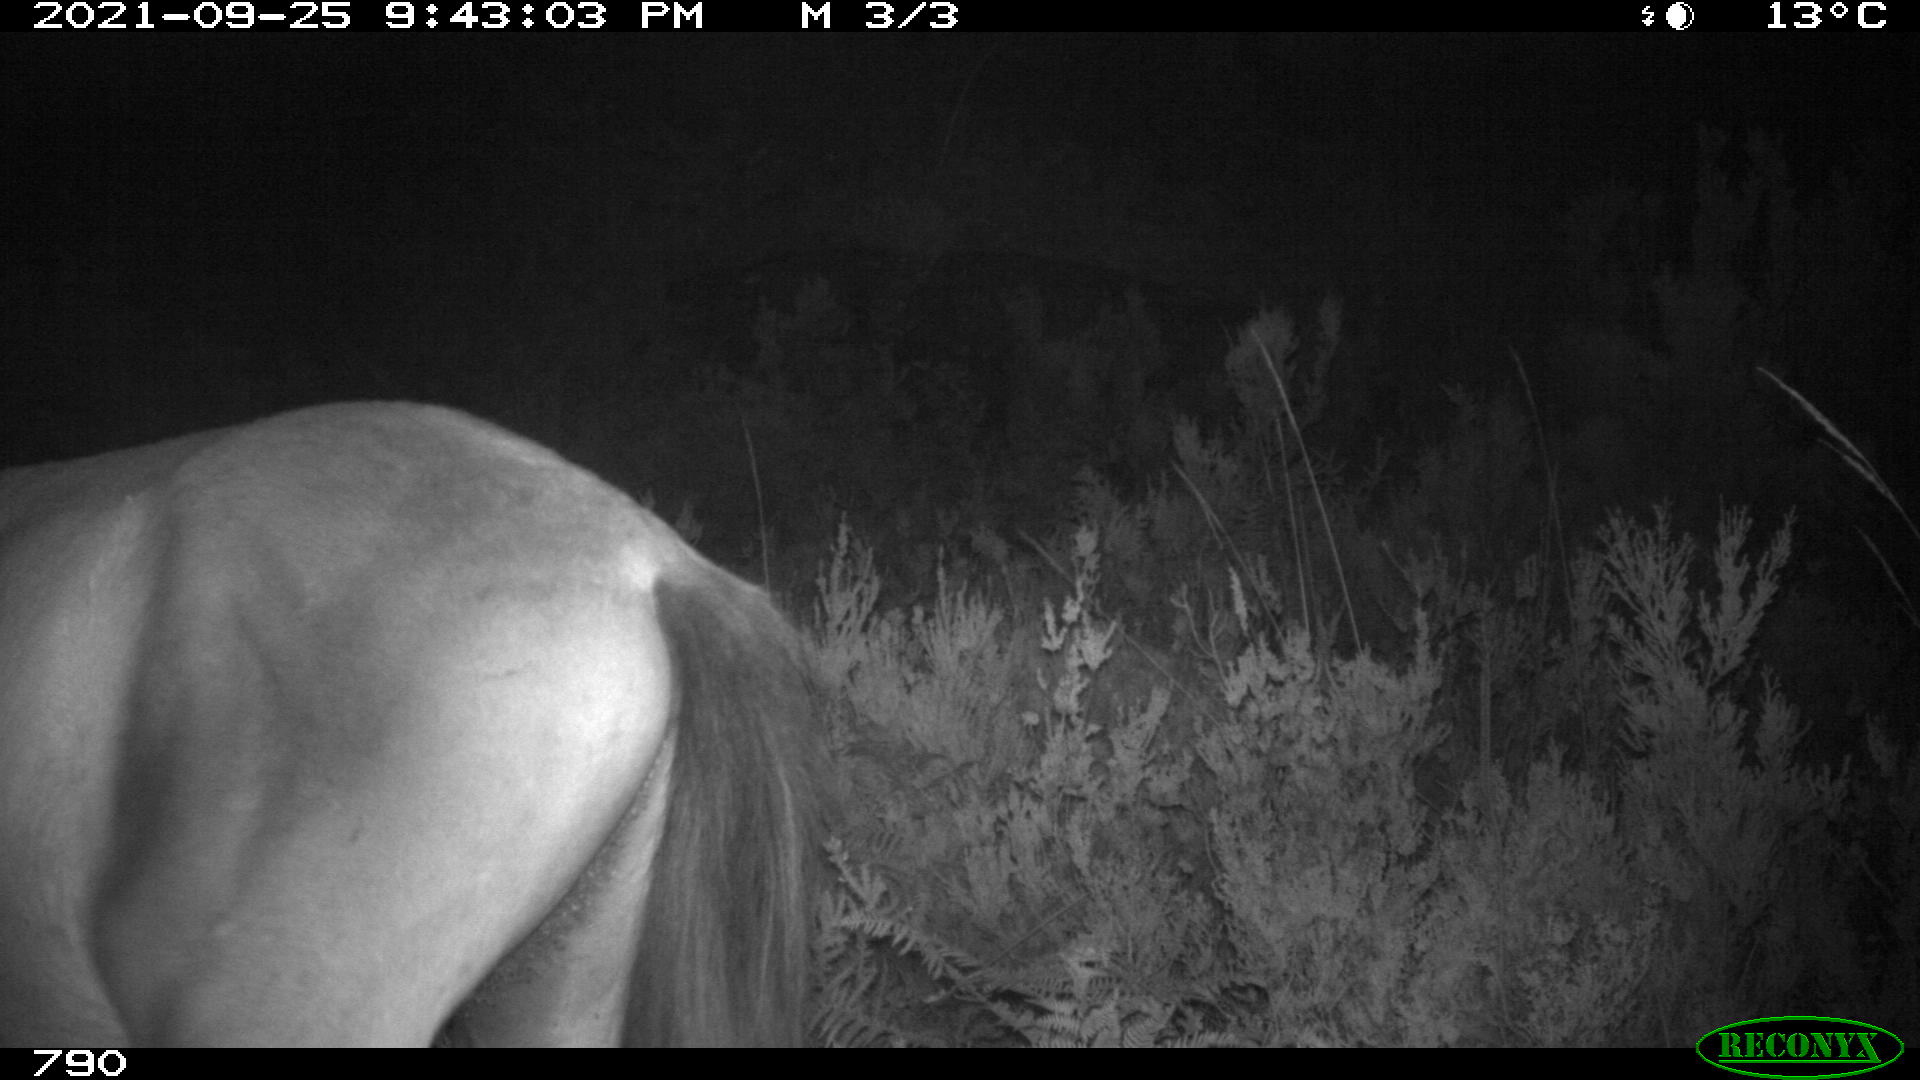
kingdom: Animalia
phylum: Chordata
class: Mammalia
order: Perissodactyla
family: Equidae
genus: Equus
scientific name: Equus caballus
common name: Horse
